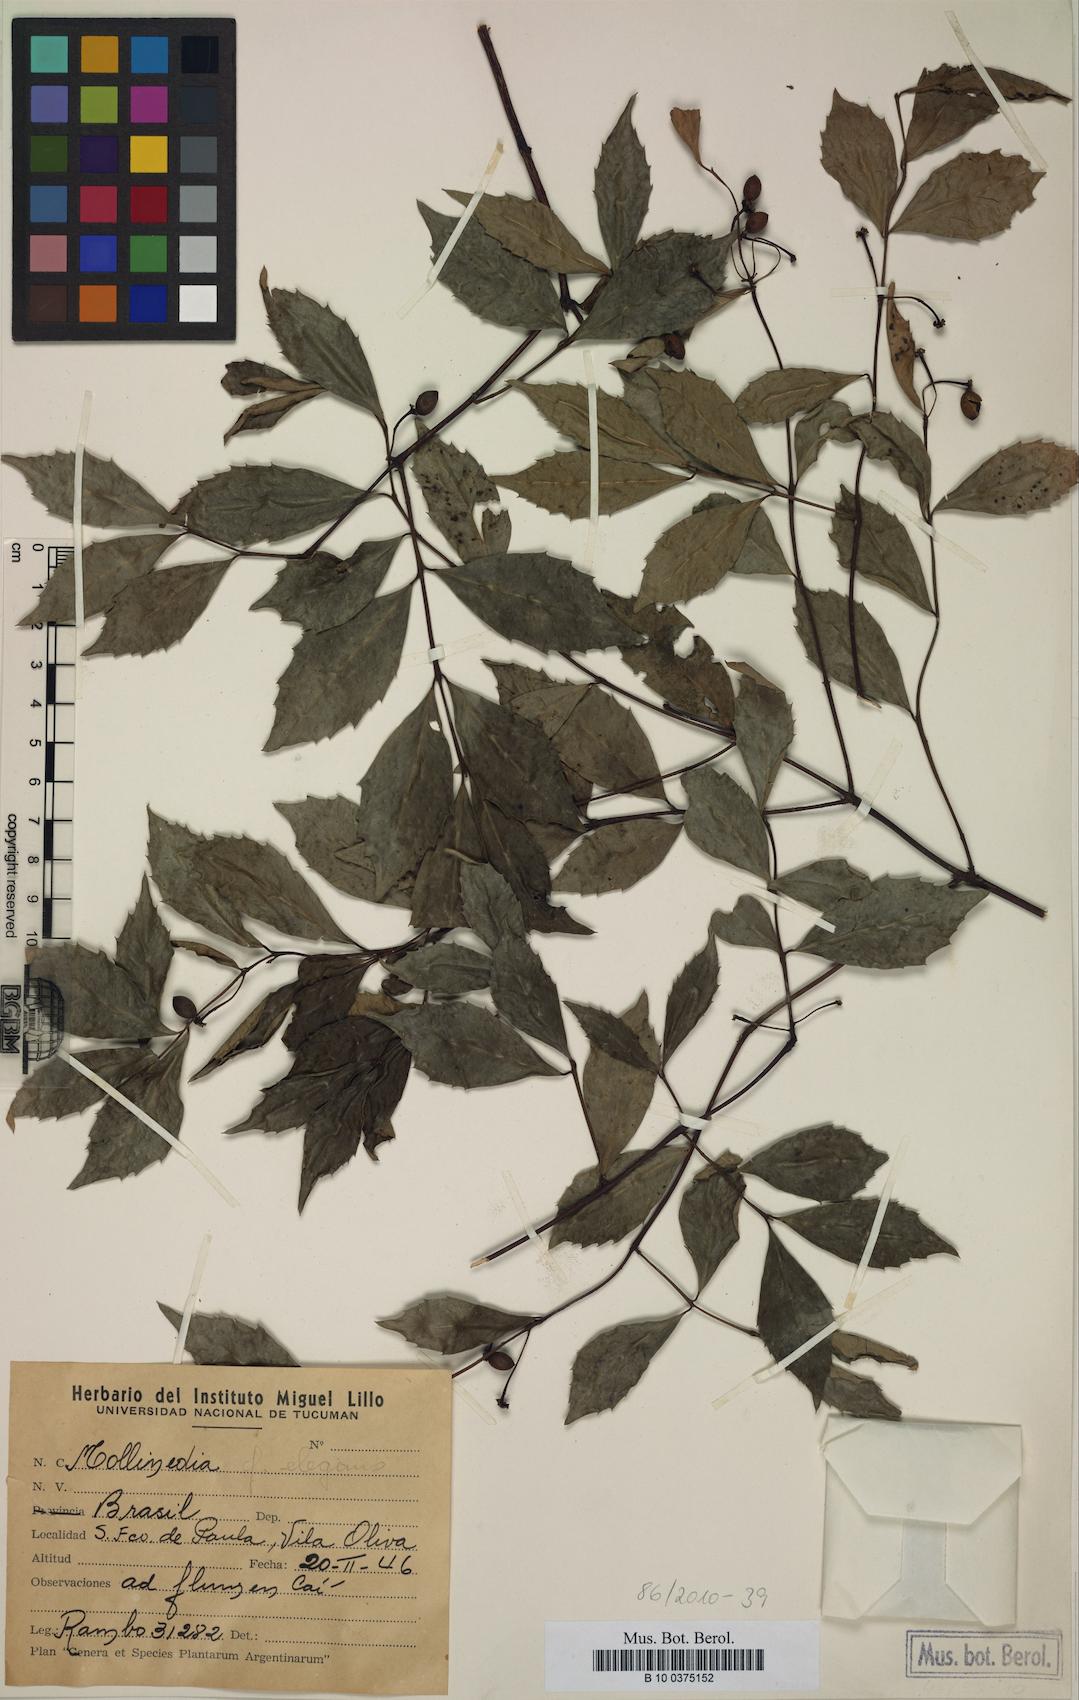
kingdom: Plantae
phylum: Tracheophyta
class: Magnoliopsida
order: Laurales
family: Monimiaceae
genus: Mollinedia
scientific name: Mollinedia elegans
